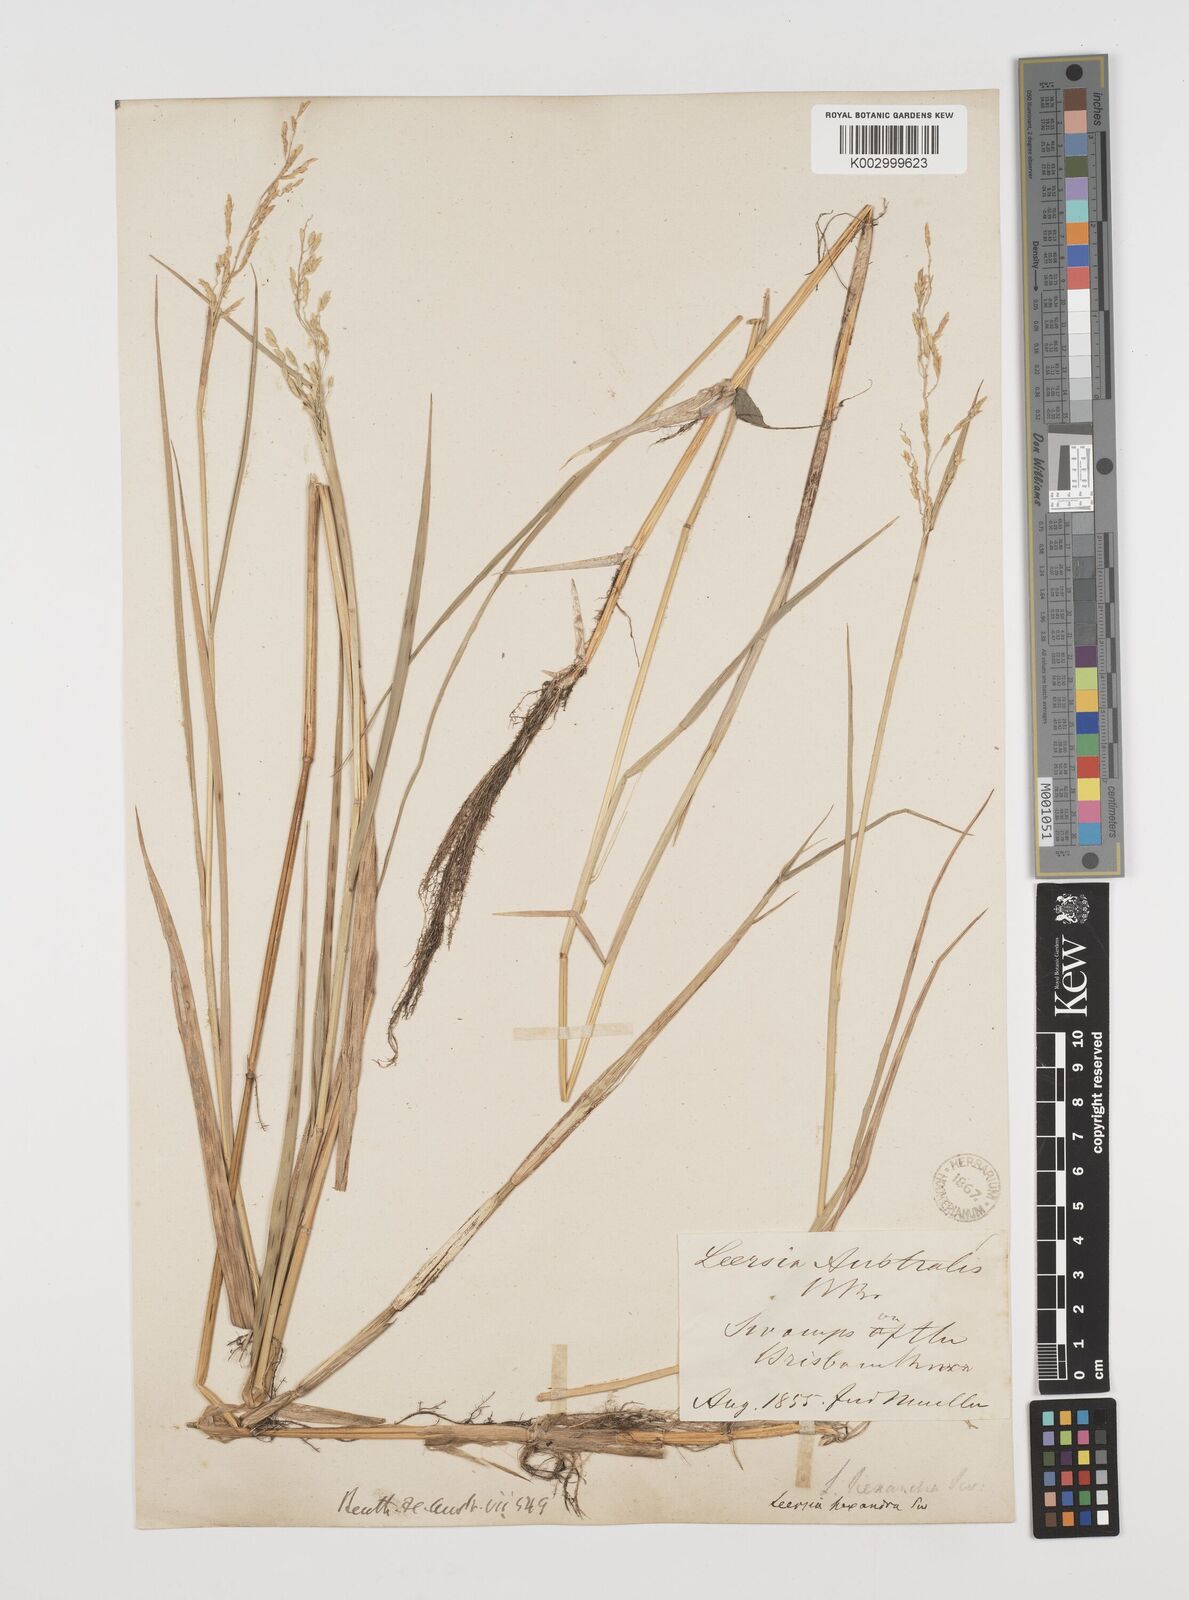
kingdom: Plantae
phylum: Tracheophyta
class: Liliopsida
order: Poales
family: Poaceae
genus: Leersia
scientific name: Leersia hexandra
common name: Southern cut grass
